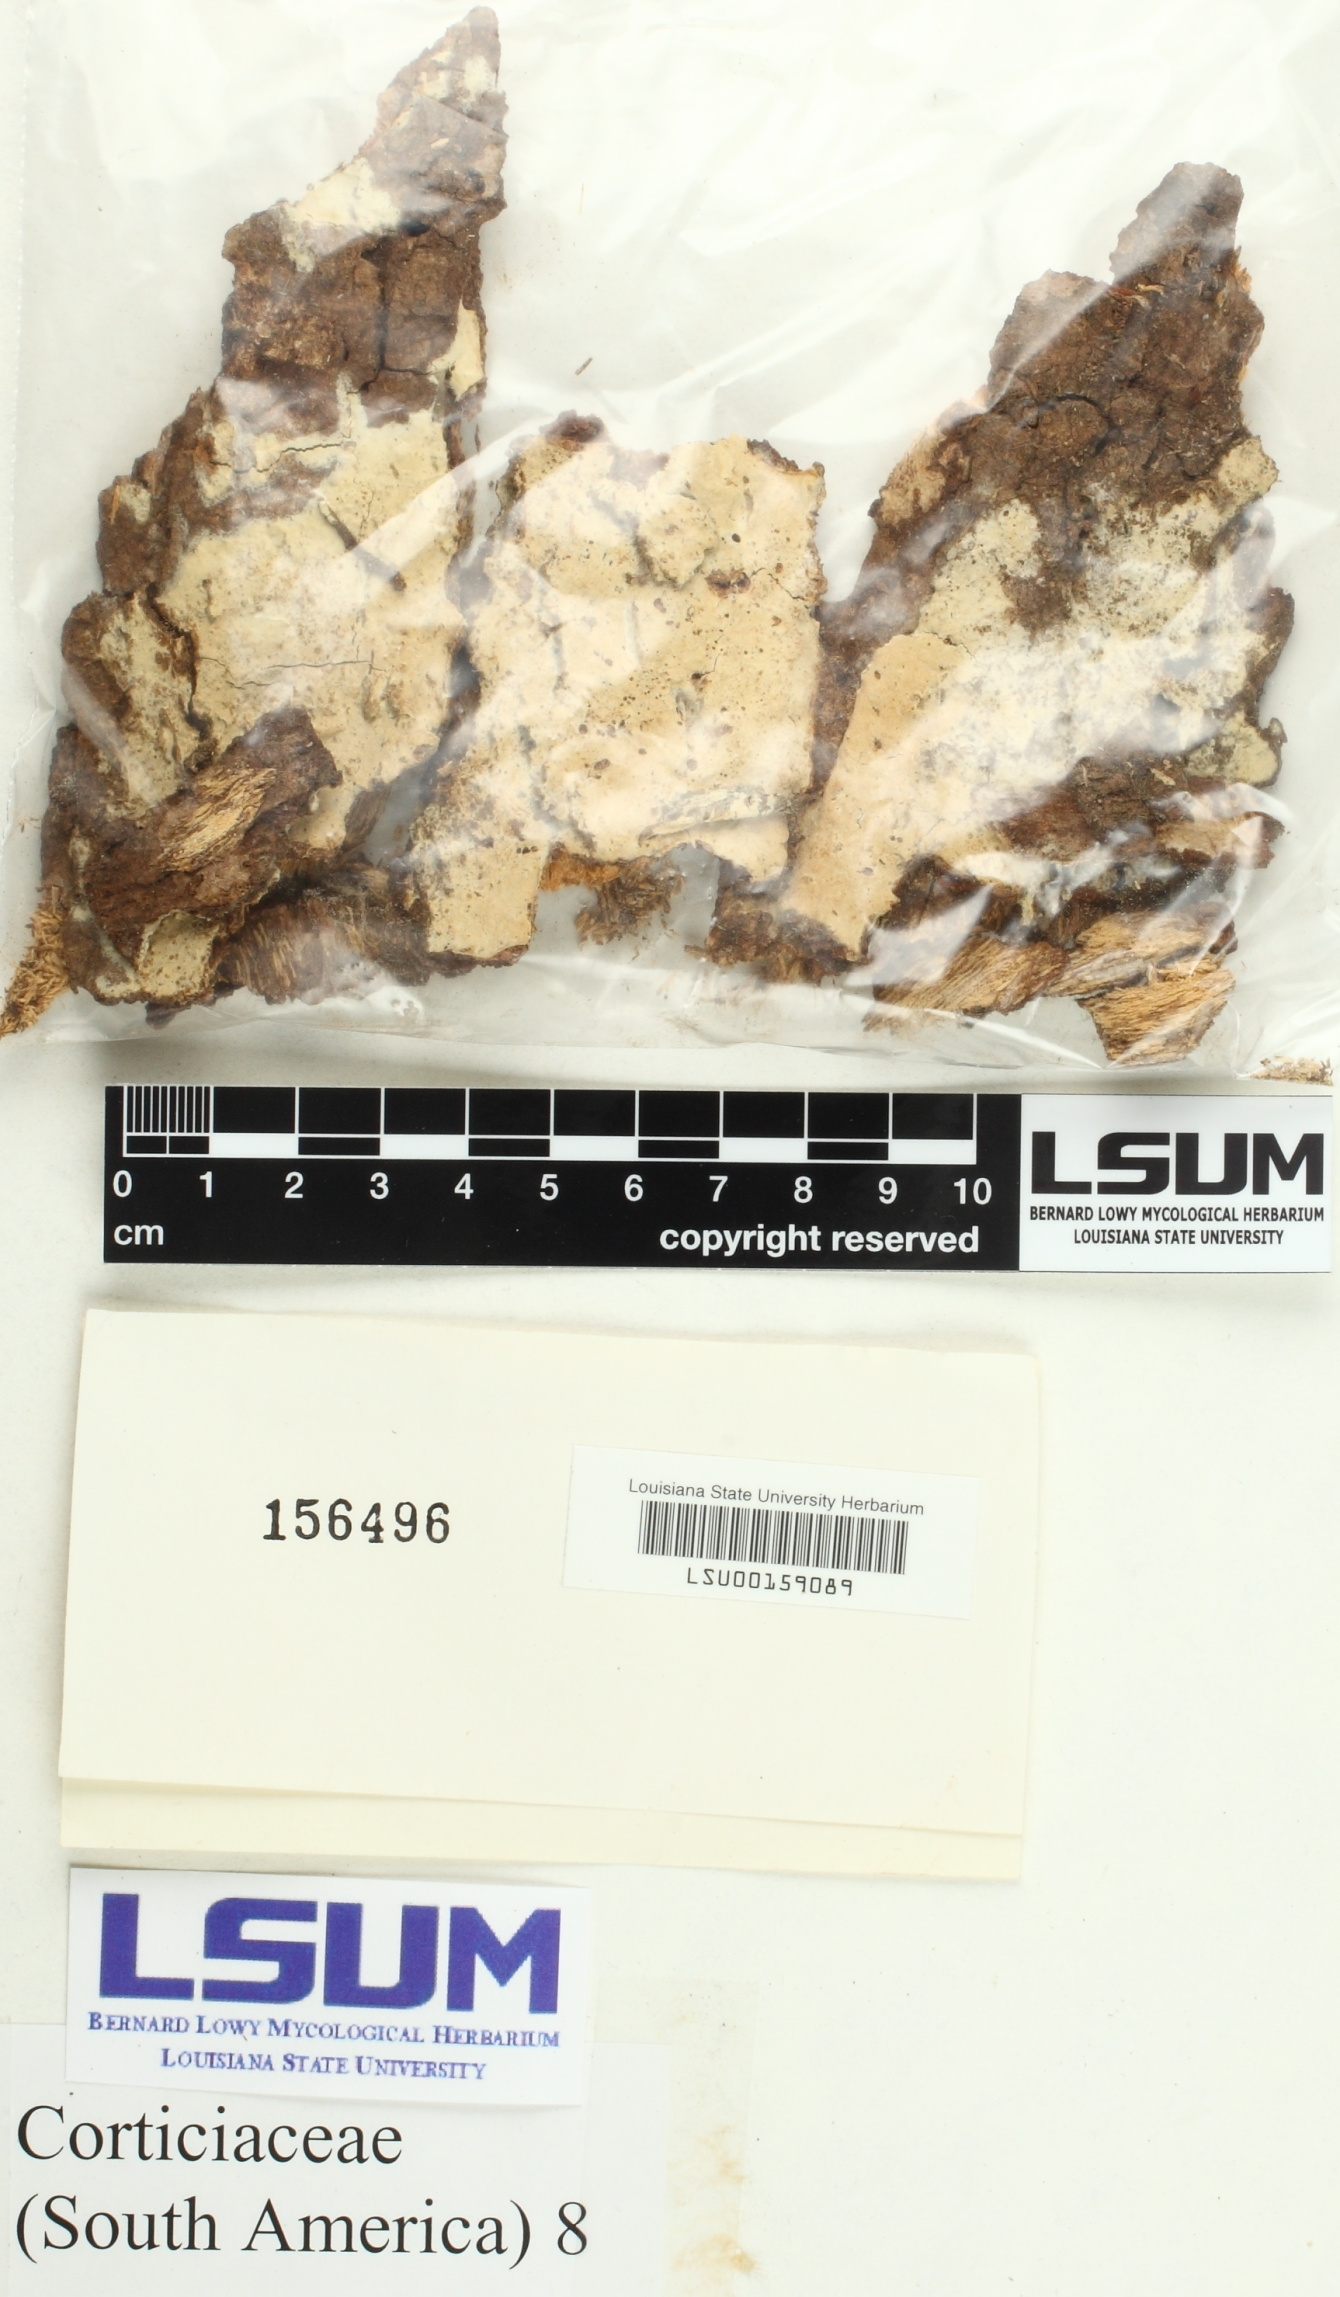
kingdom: Fungi
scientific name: Fungi
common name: Fungi
